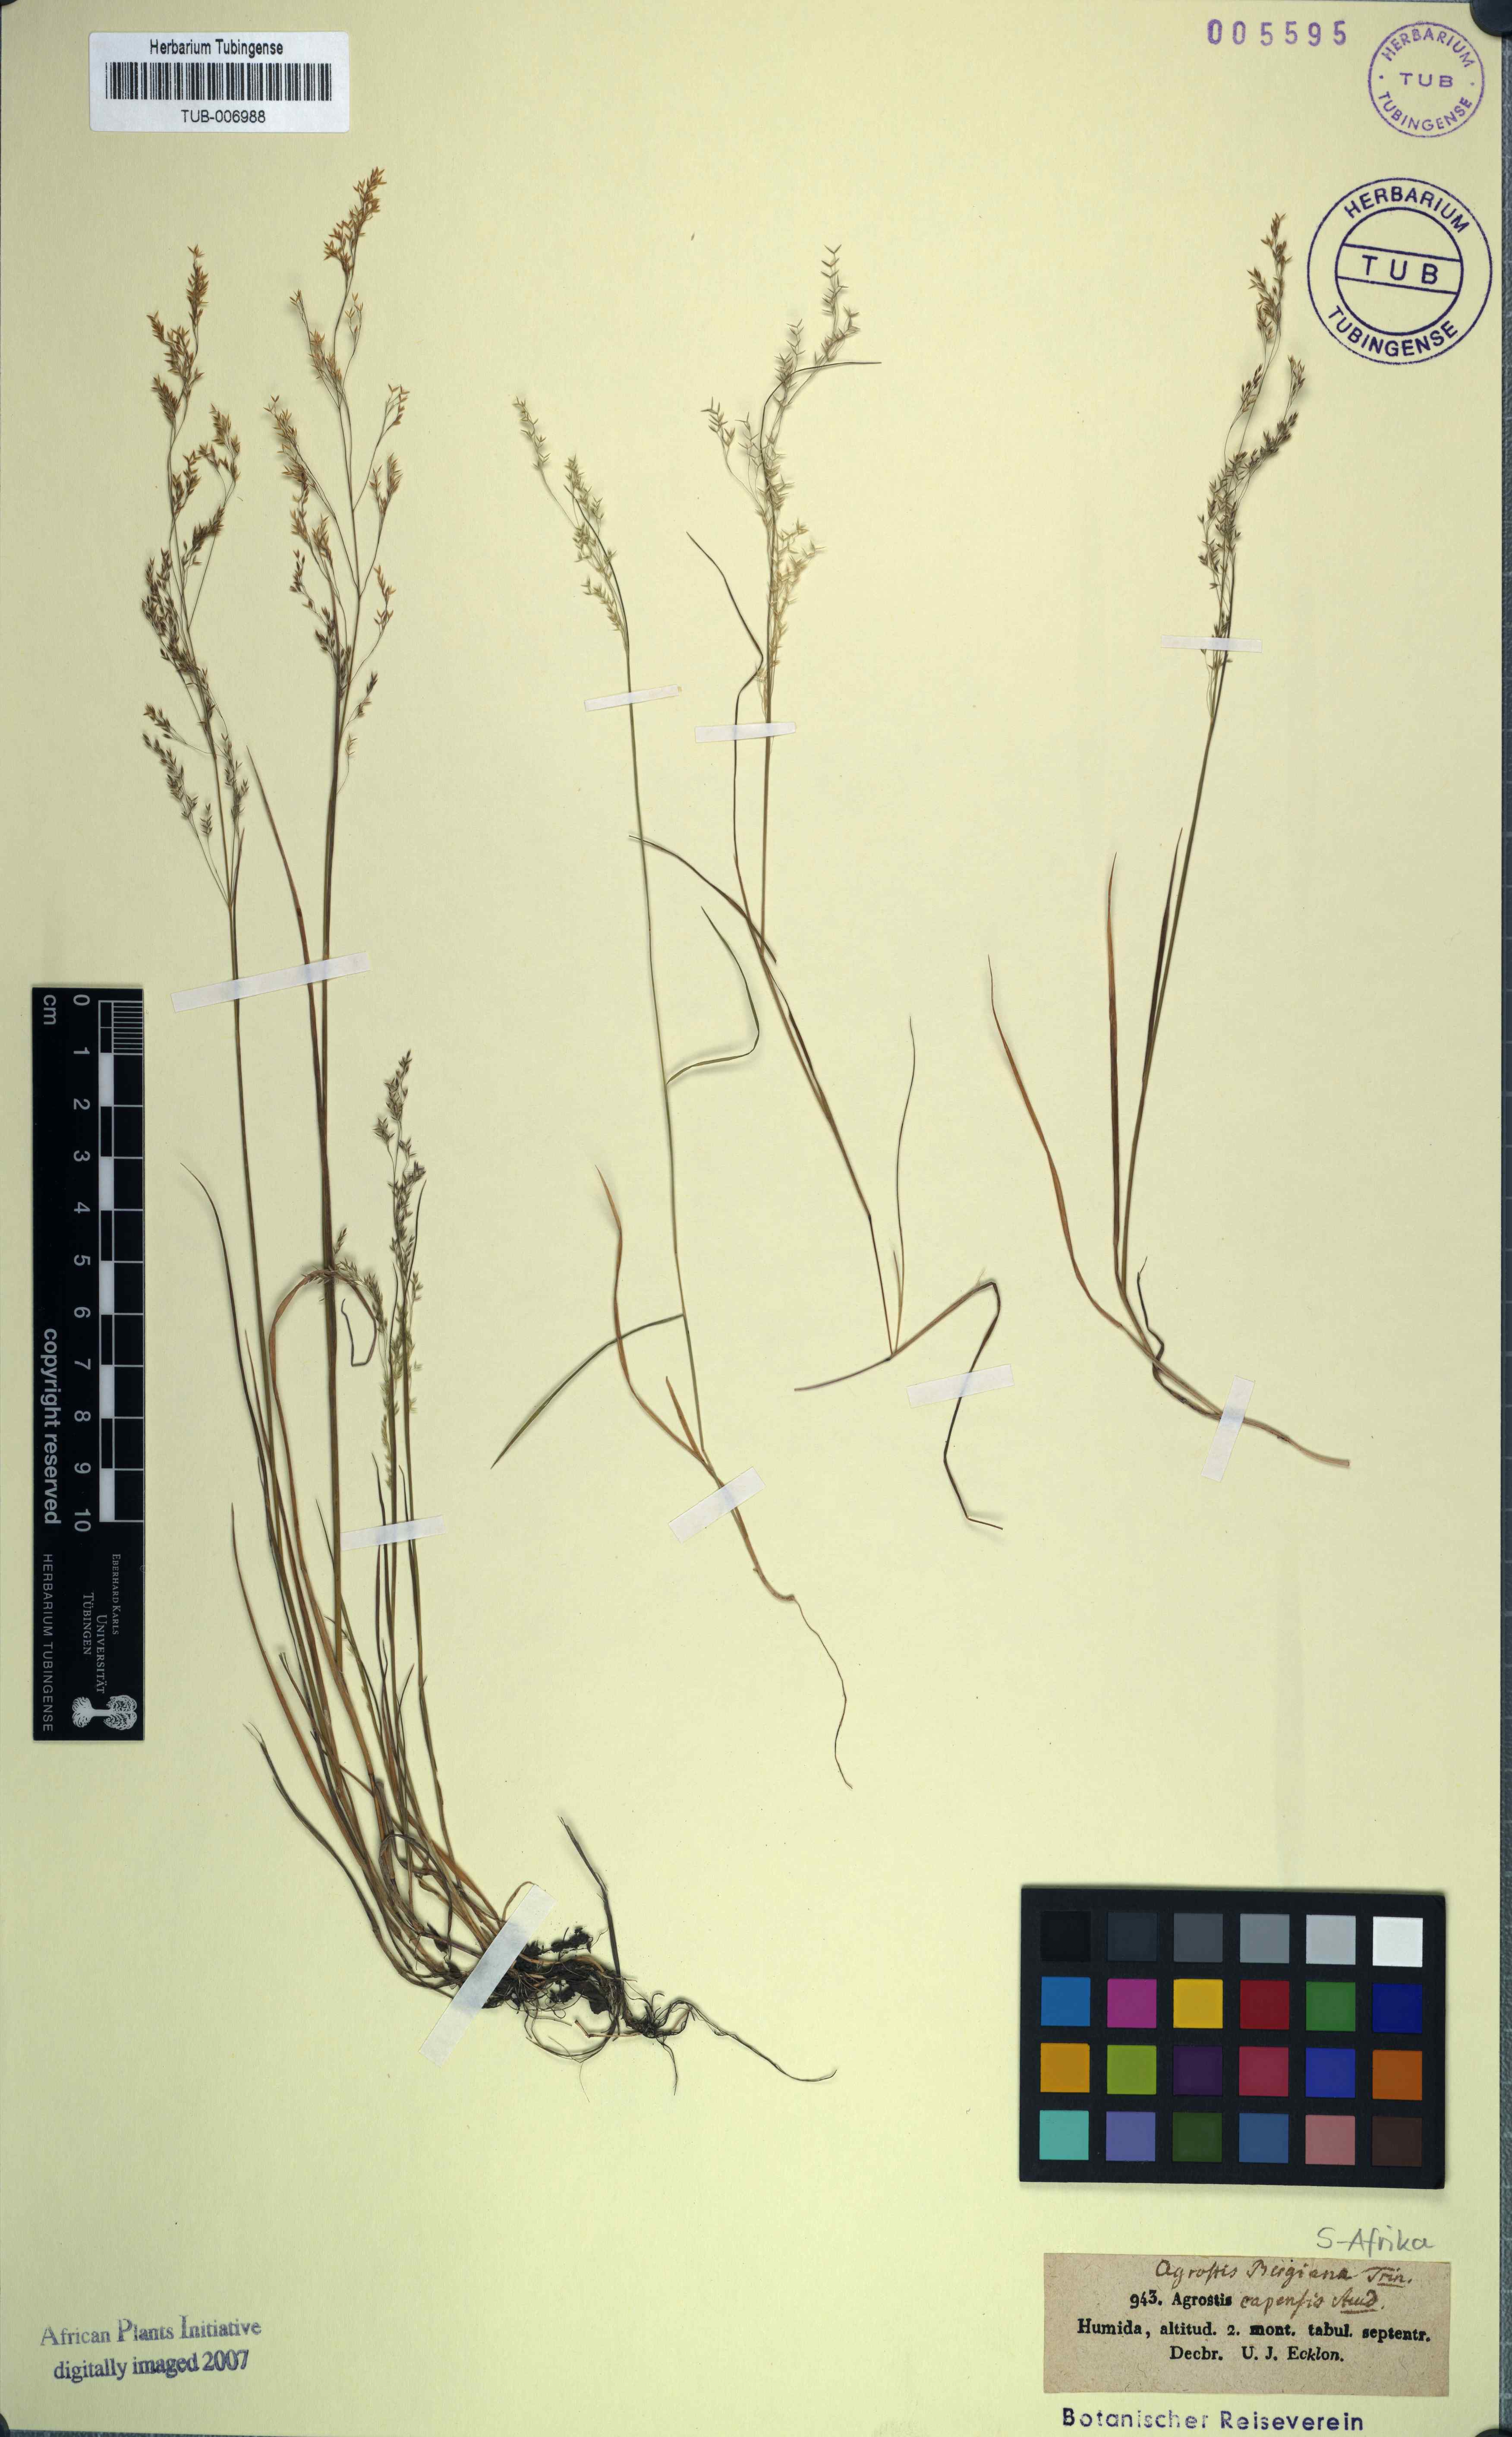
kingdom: Plantae
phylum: Tracheophyta
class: Liliopsida
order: Poales
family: Poaceae
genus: Agrostis
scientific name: Agrostis bergiana
